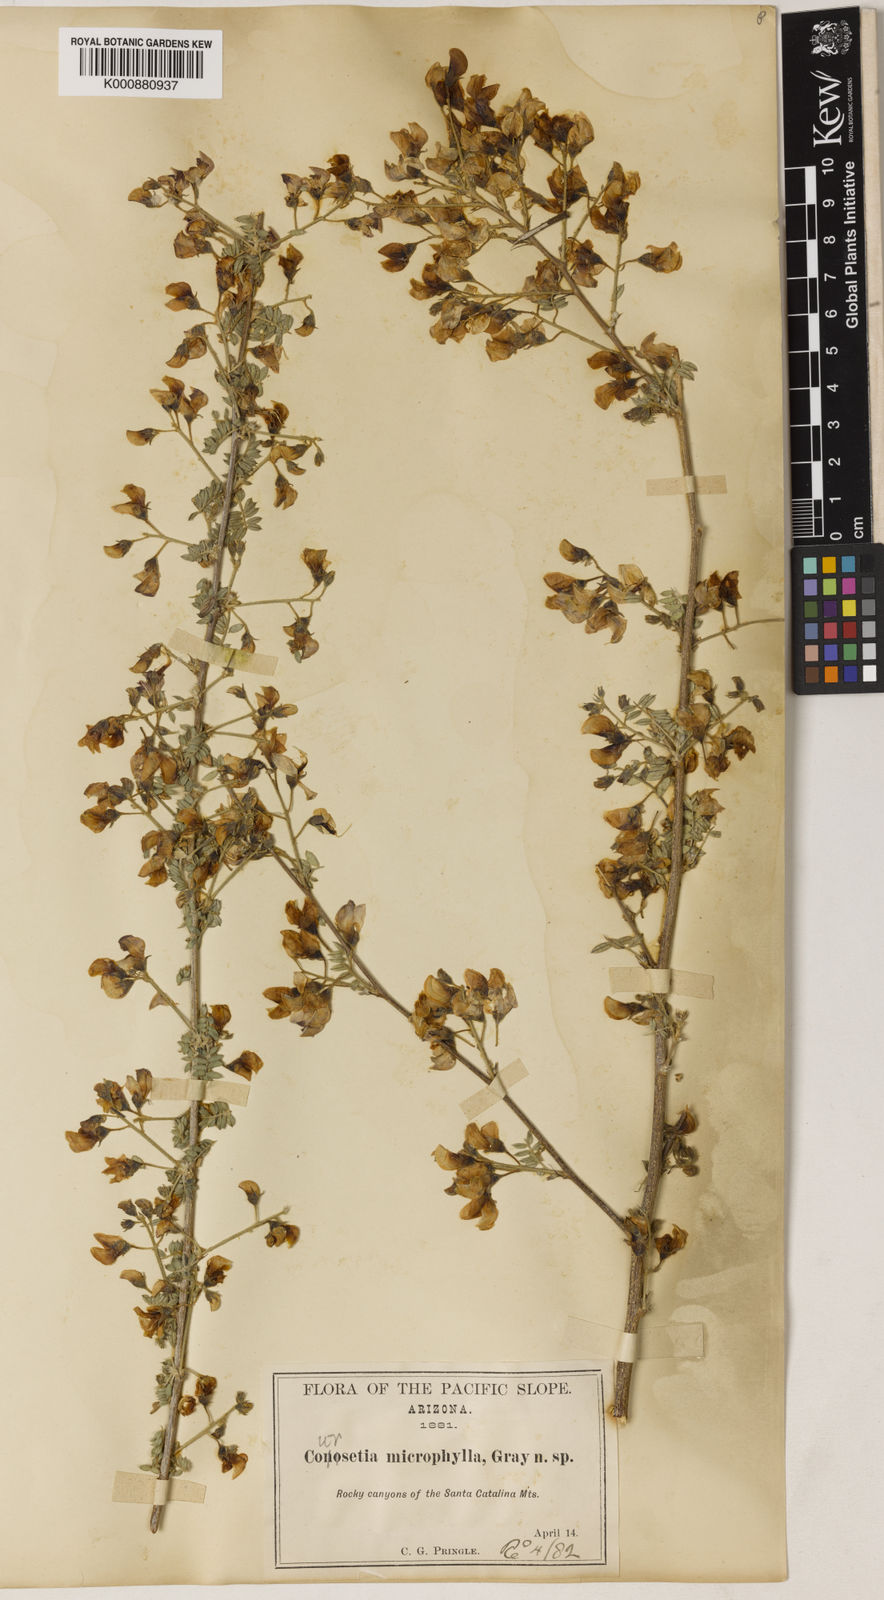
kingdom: Plantae
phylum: Tracheophyta
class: Magnoliopsida
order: Fabales
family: Fabaceae
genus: Coursetia
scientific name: Coursetia glandulosa
